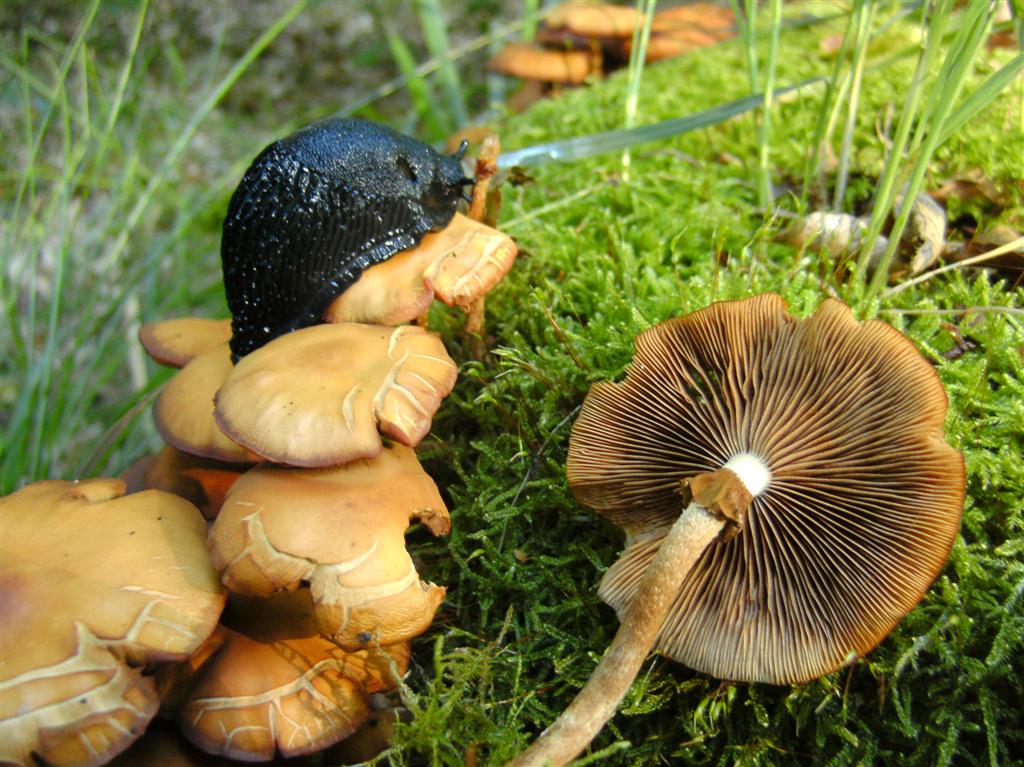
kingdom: Fungi
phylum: Basidiomycota
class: Agaricomycetes
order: Agaricales
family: Strophariaceae
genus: Kuehneromyces
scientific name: Kuehneromyces mutabilis
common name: foranderlig skælhat
